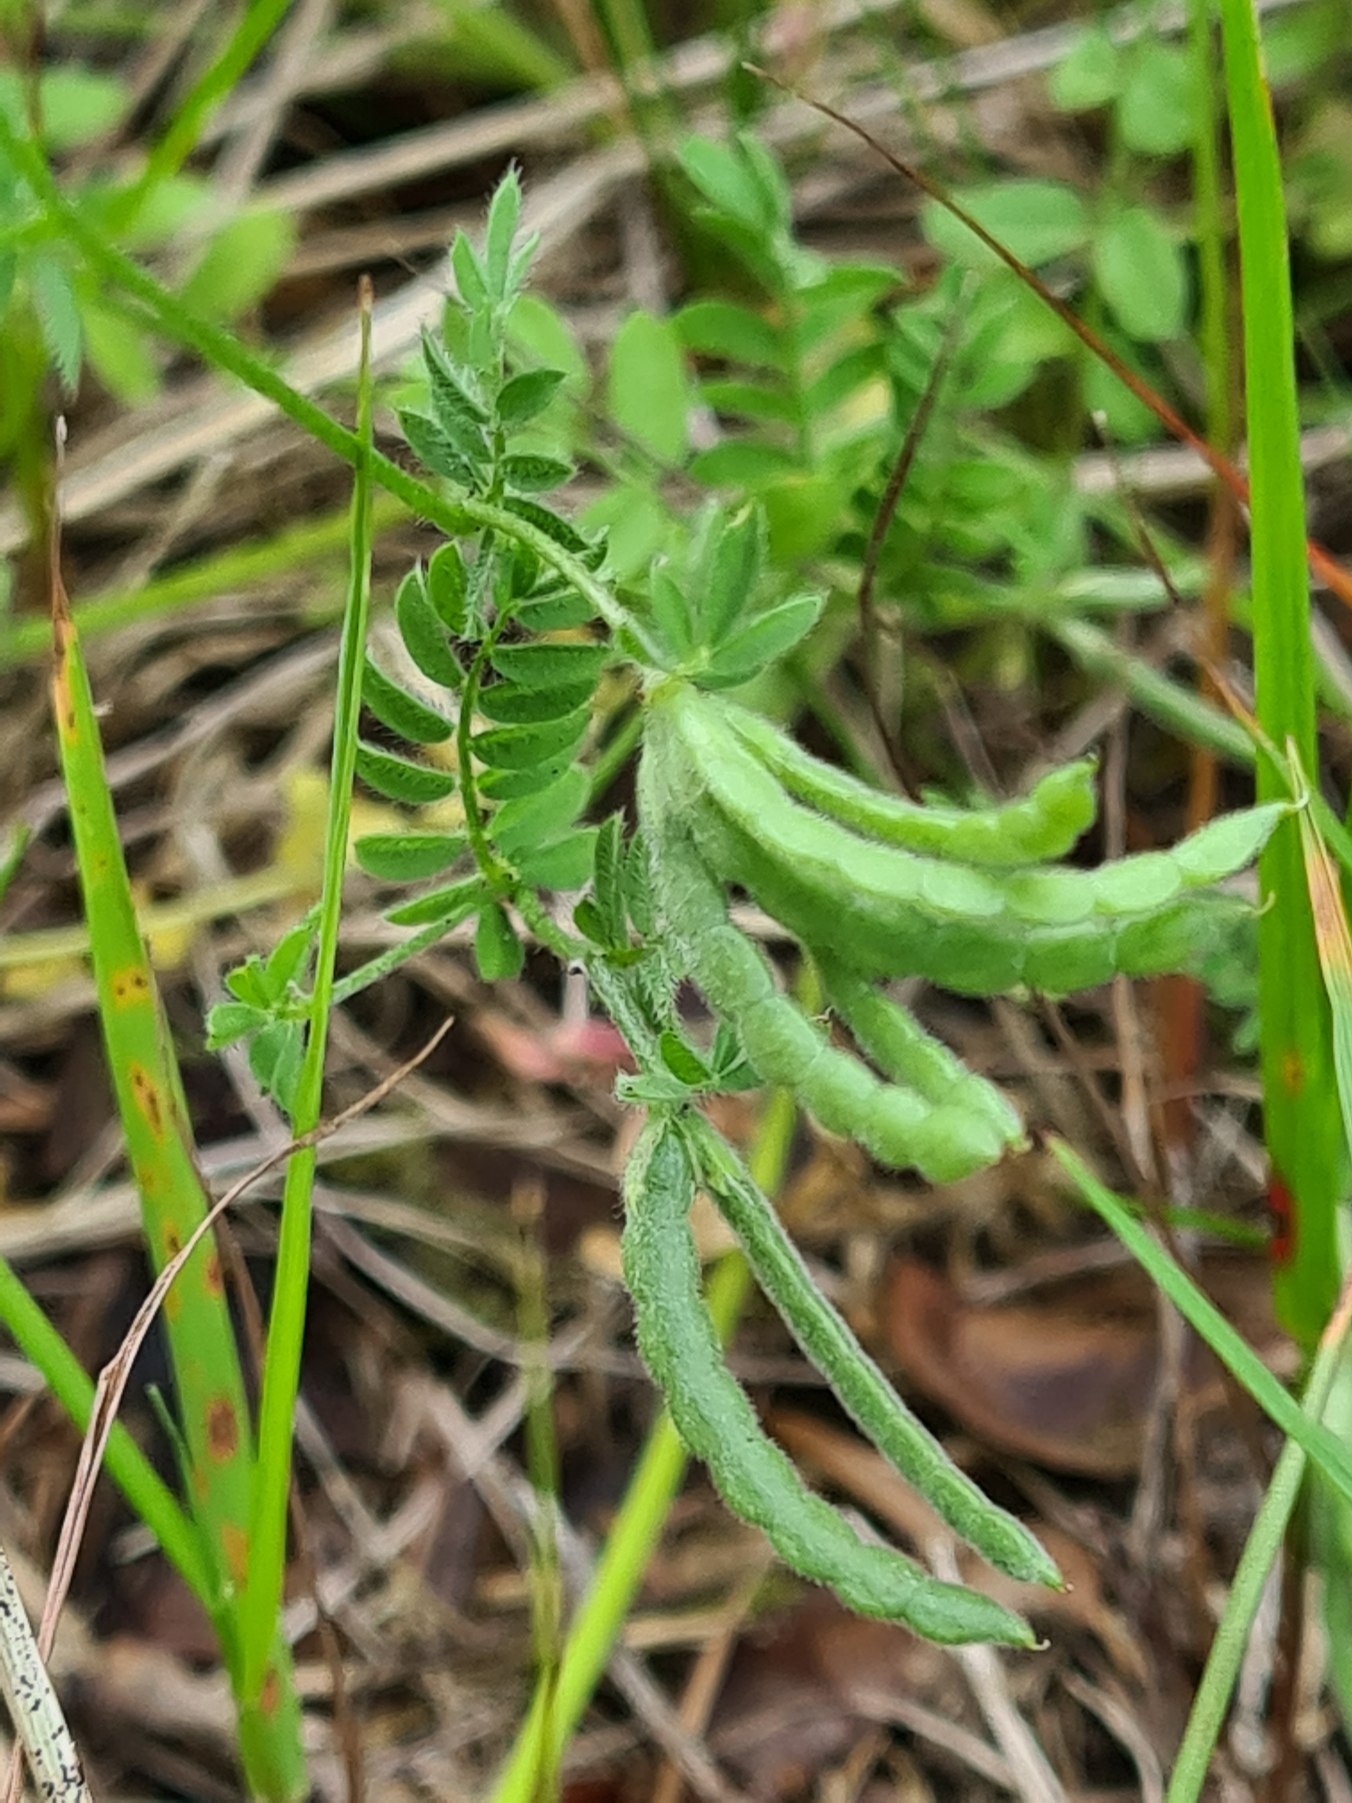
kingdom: Plantae
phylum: Tracheophyta
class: Magnoliopsida
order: Fabales
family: Fabaceae
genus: Ornithopus
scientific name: Ornithopus perpusillus
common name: Liden fugleklo
